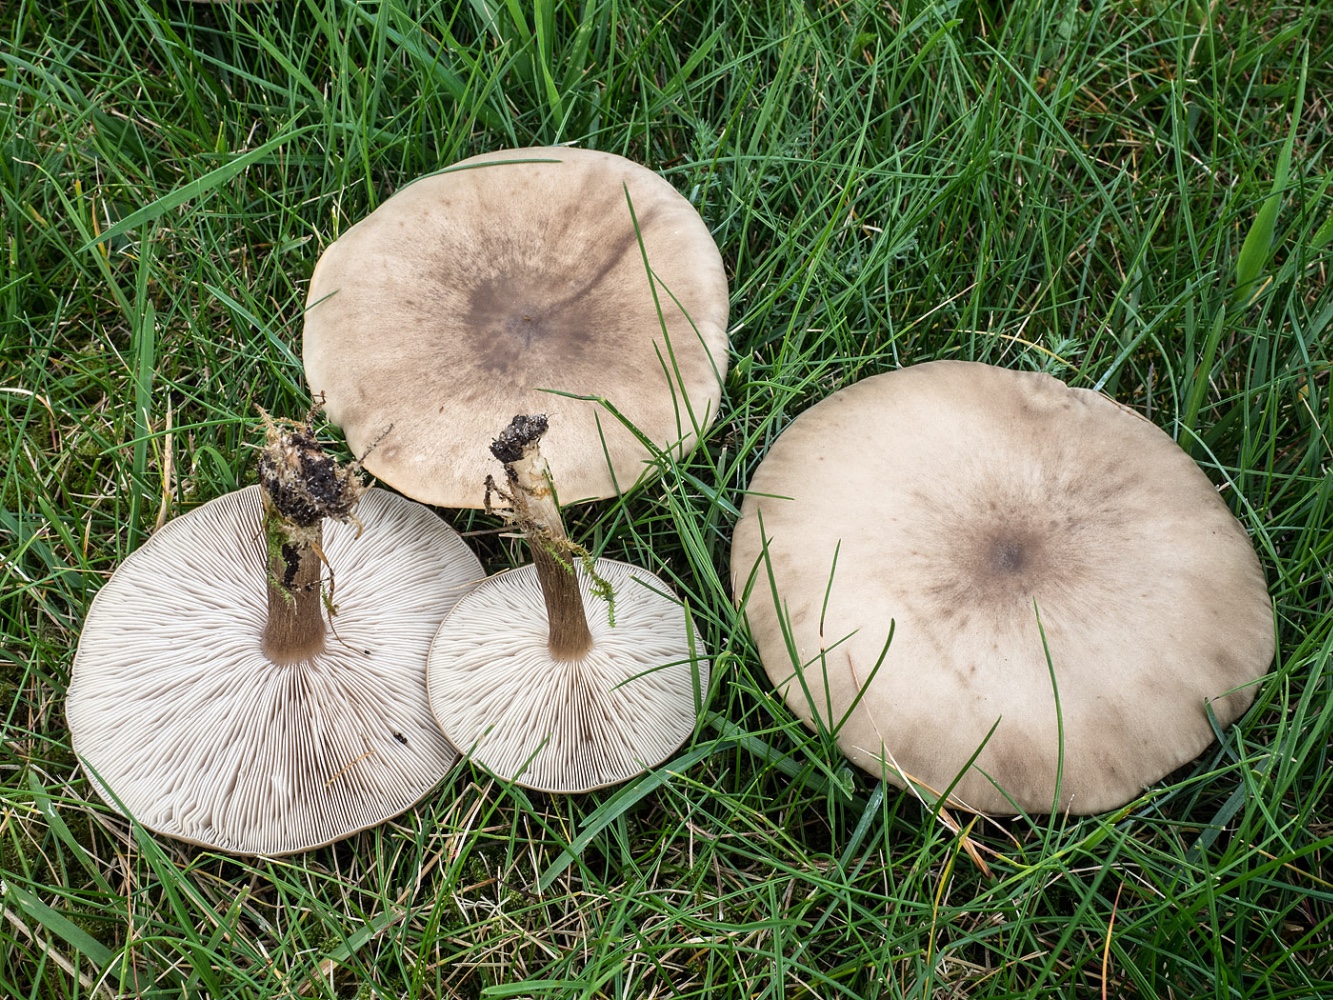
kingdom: Fungi
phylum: Basidiomycota
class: Agaricomycetes
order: Agaricales
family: Tricholomataceae
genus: Melanoleuca
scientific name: Melanoleuca
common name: munkehat
